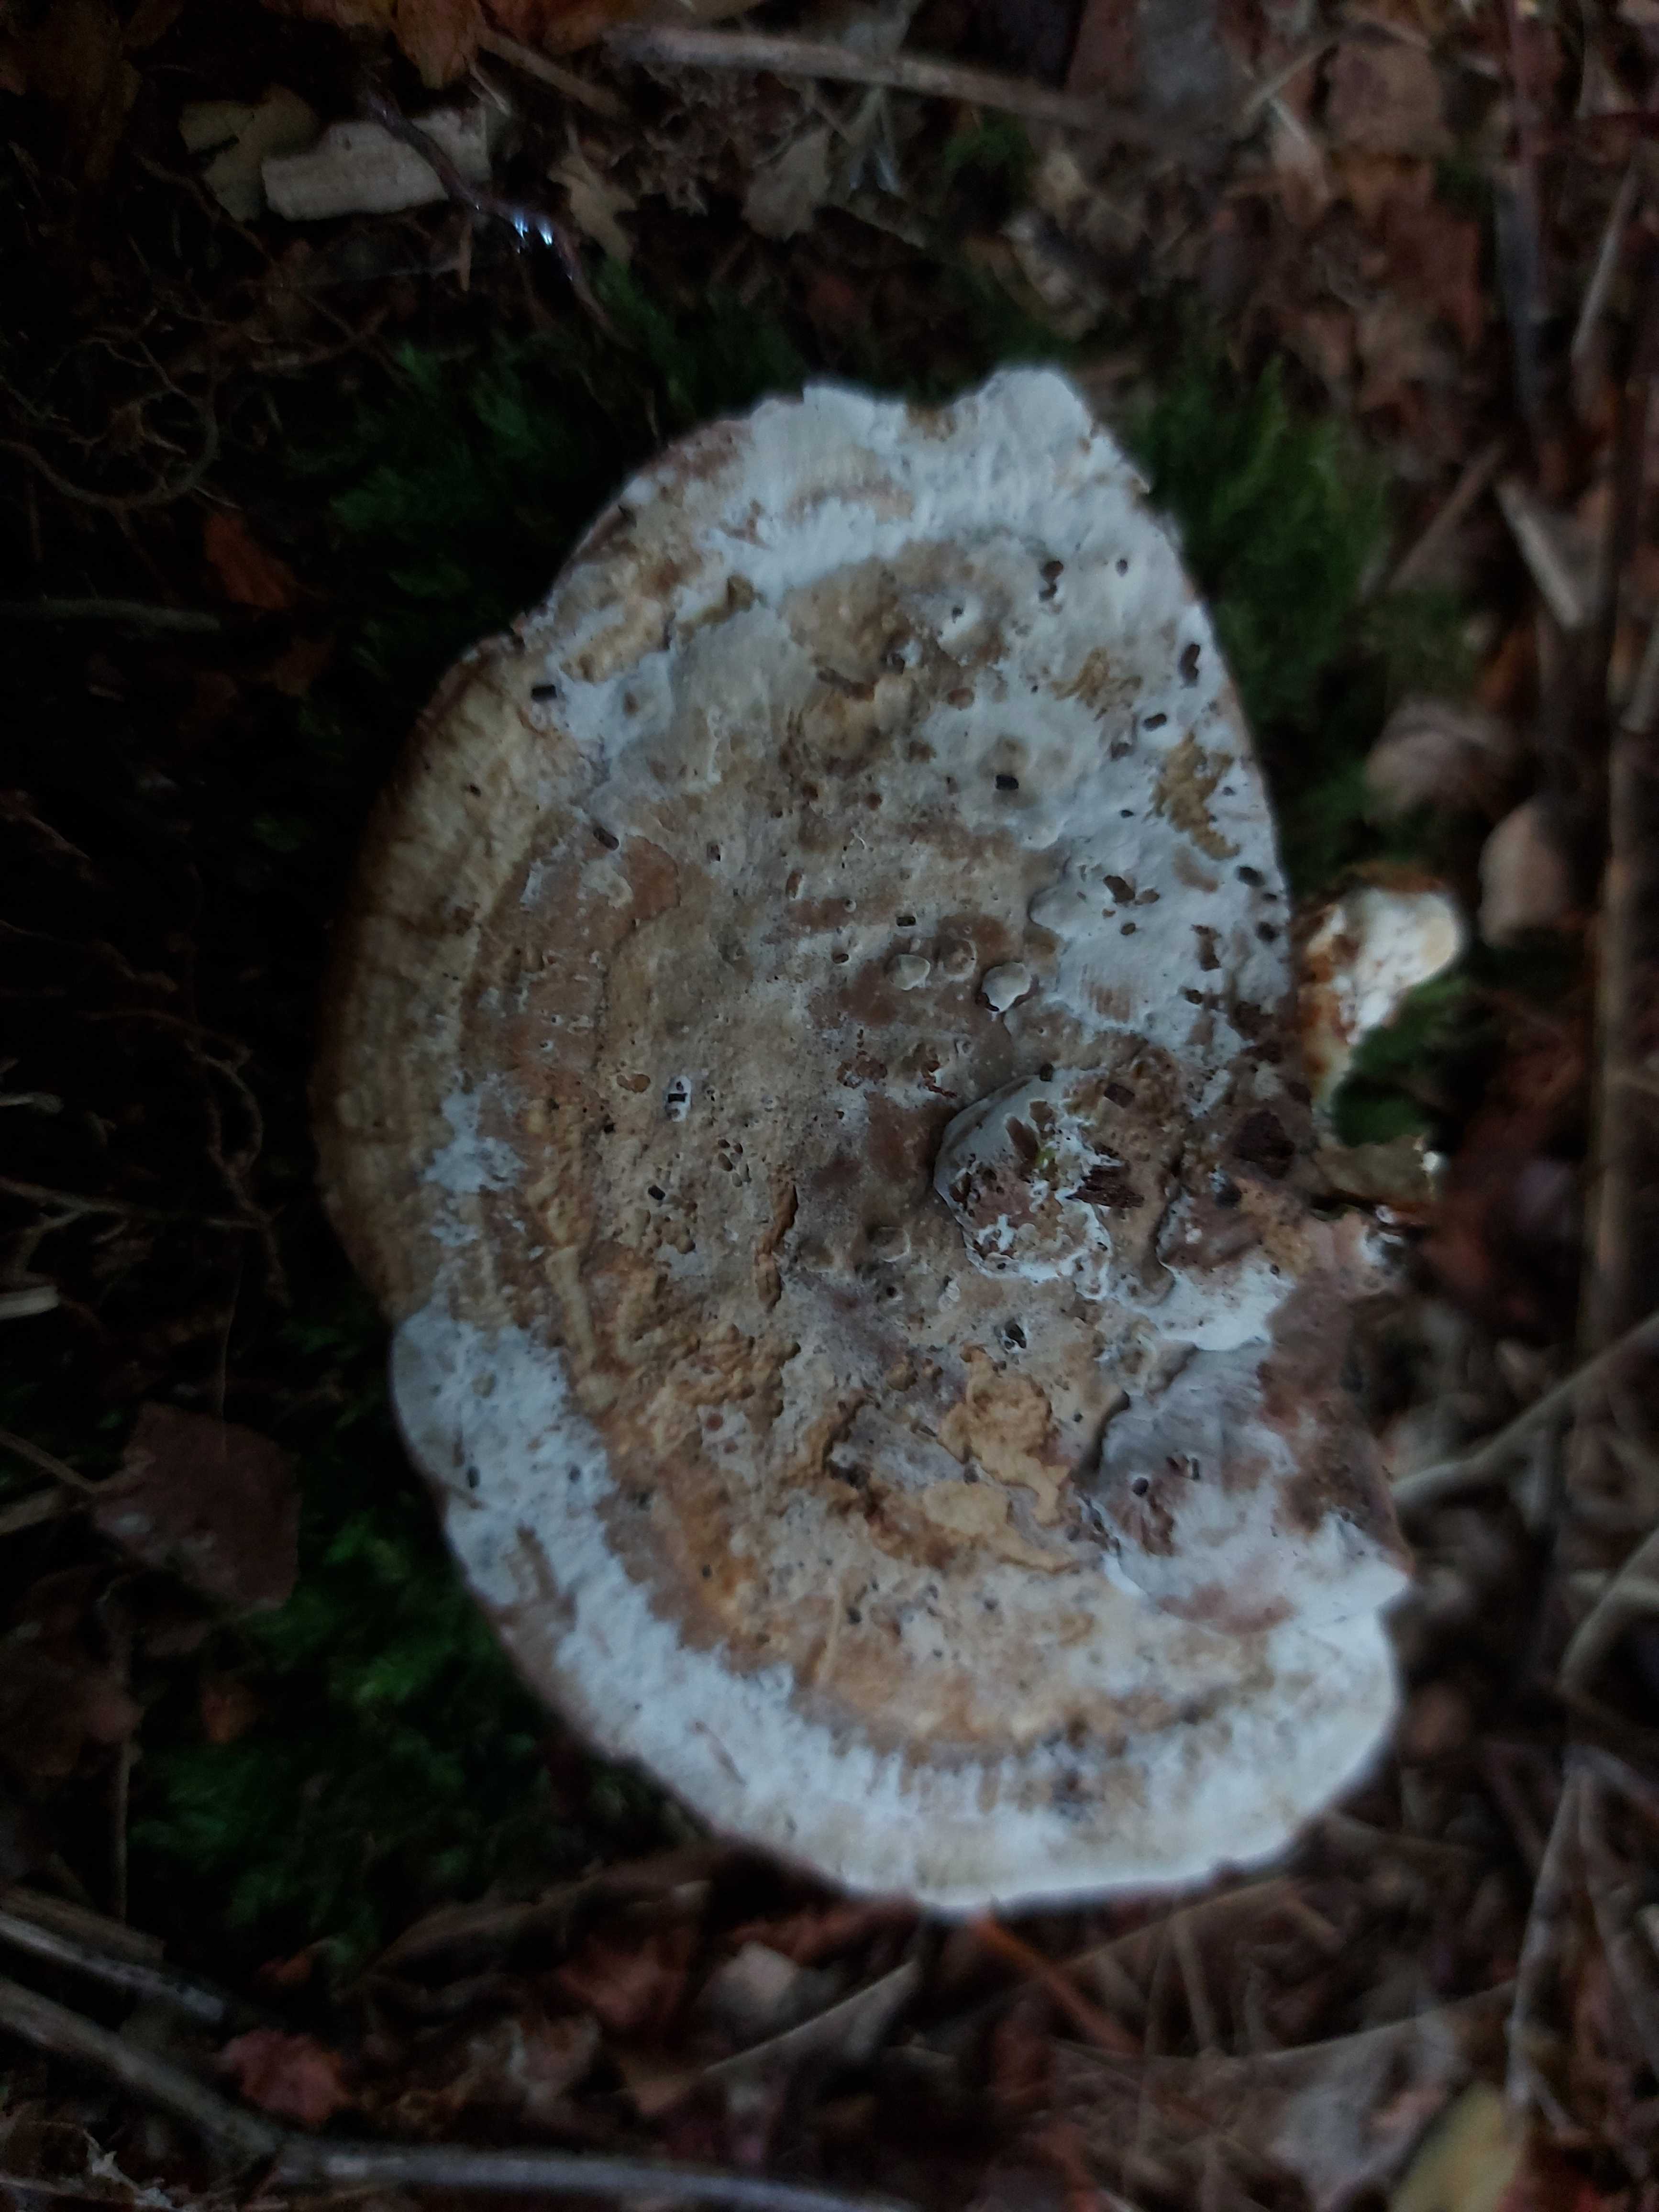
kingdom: Fungi
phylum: Basidiomycota
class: Agaricomycetes
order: Polyporales
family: Polyporaceae
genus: Daedaleopsis
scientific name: Daedaleopsis confragosa
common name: rødmende læderporesvamp
